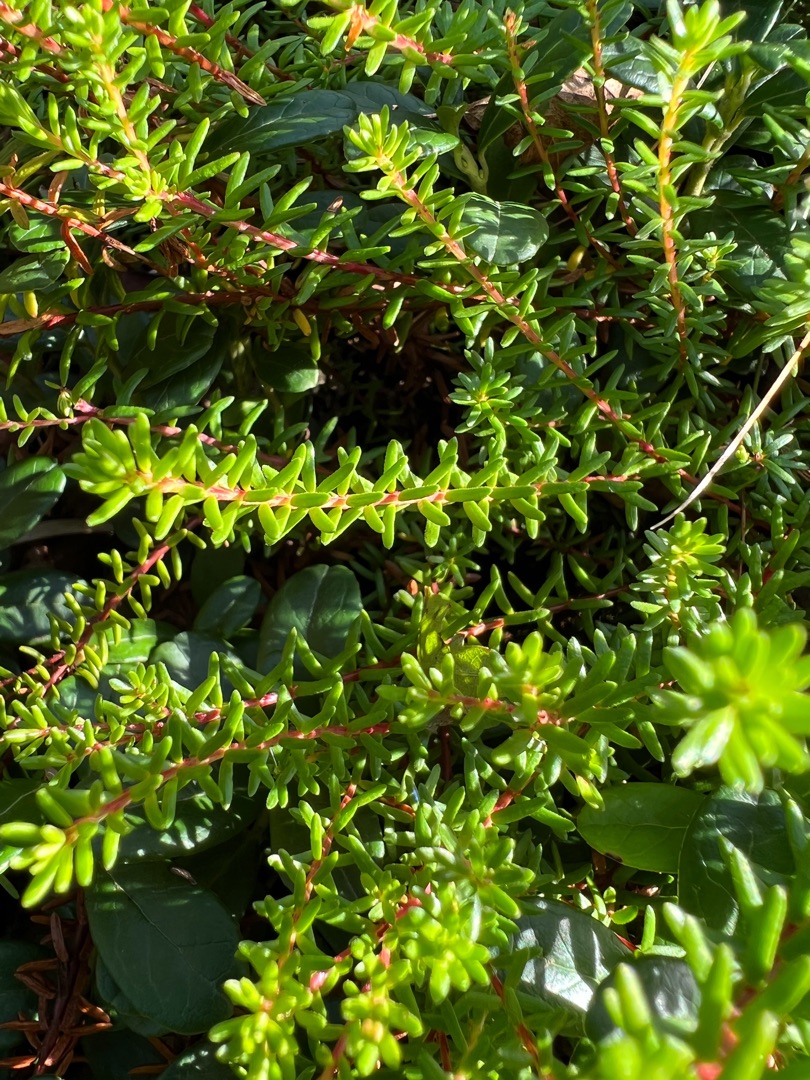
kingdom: Plantae
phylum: Tracheophyta
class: Magnoliopsida
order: Ericales
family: Ericaceae
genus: Empetrum
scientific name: Empetrum nigrum
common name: Revling
